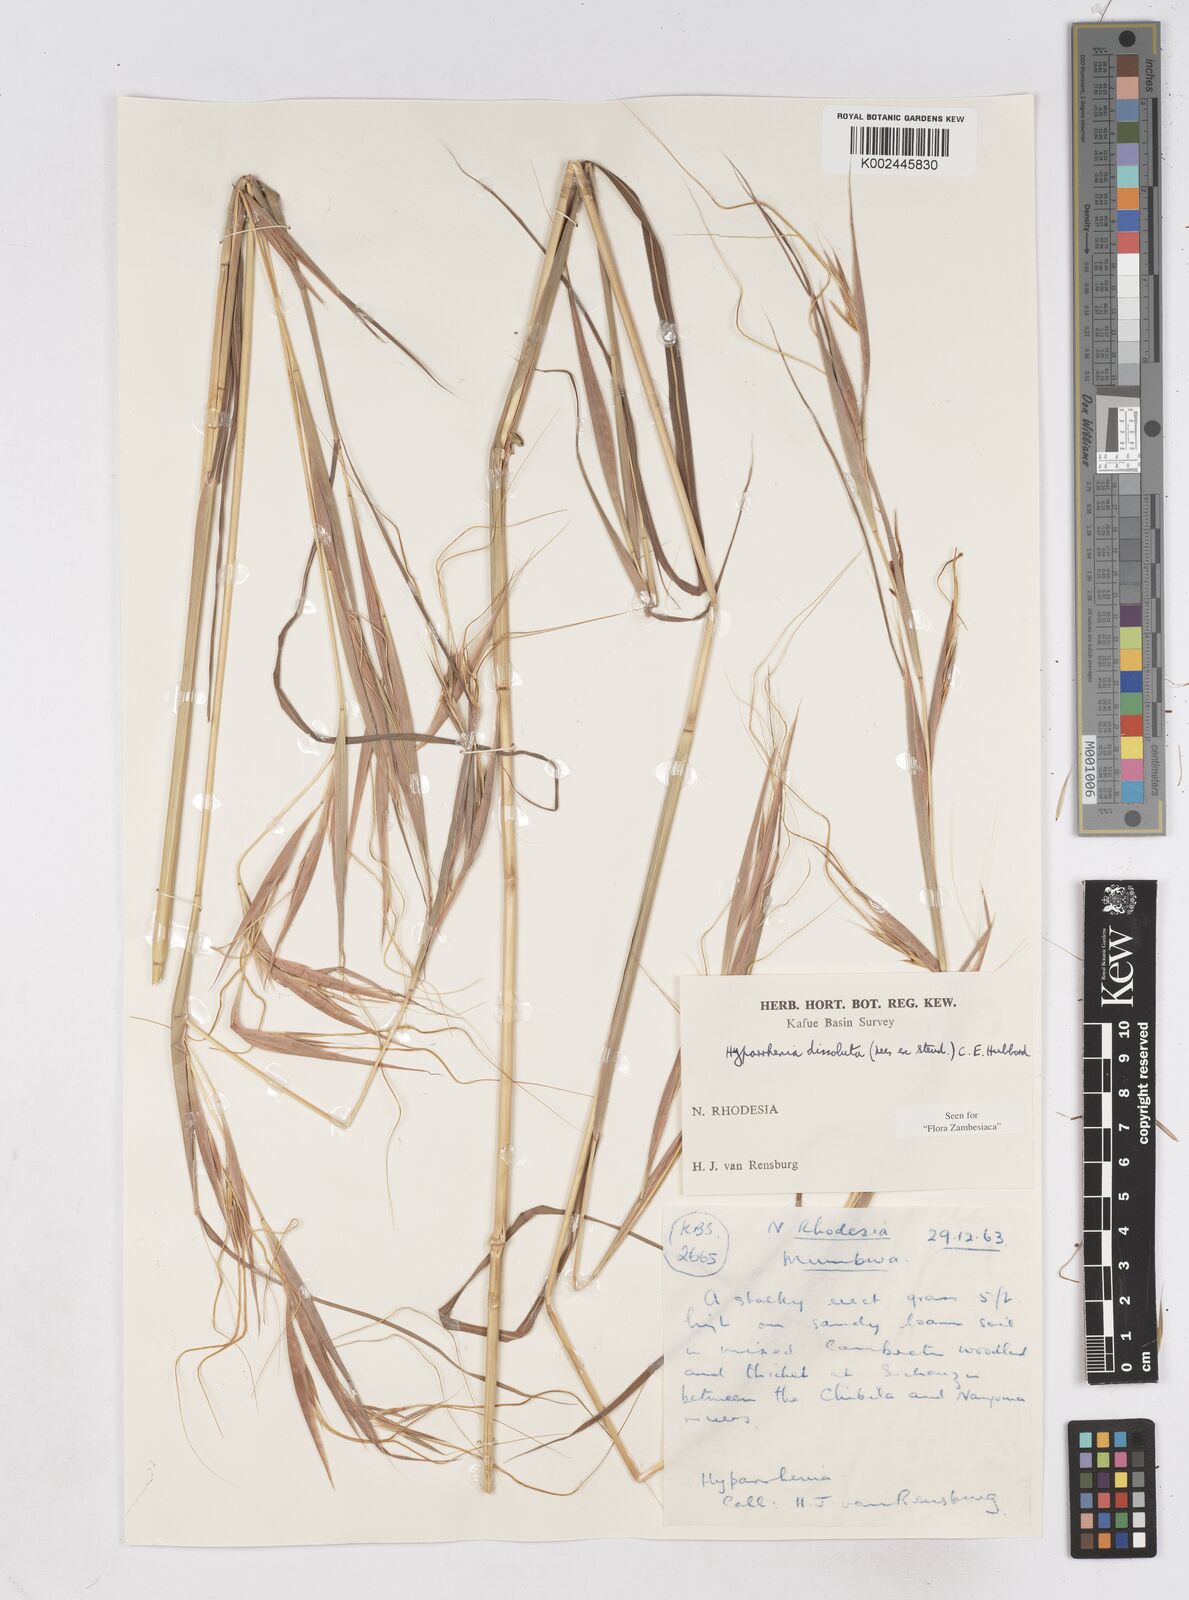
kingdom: Plantae
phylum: Tracheophyta
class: Liliopsida
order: Poales
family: Poaceae
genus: Hyperthelia
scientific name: Hyperthelia dissoluta
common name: Yellow thatching grass
